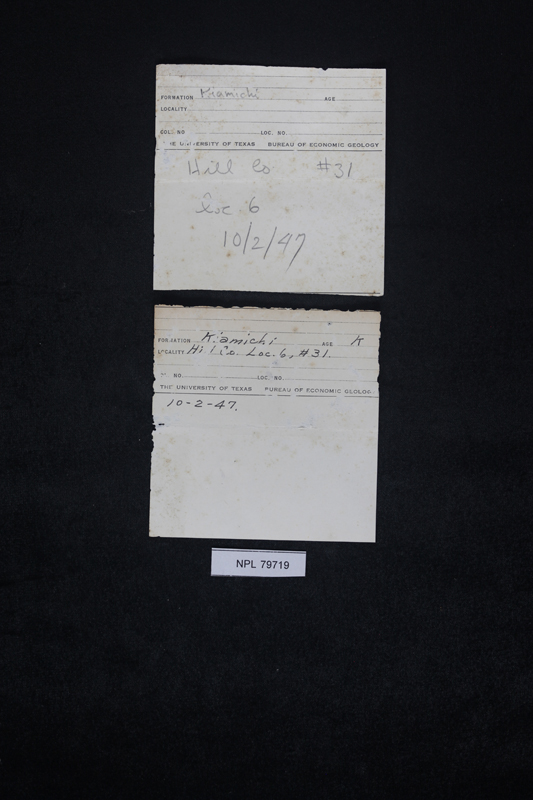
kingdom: Animalia
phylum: Mollusca
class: Bivalvia
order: Ostreida
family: Ostreidae
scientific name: Ostreidae
